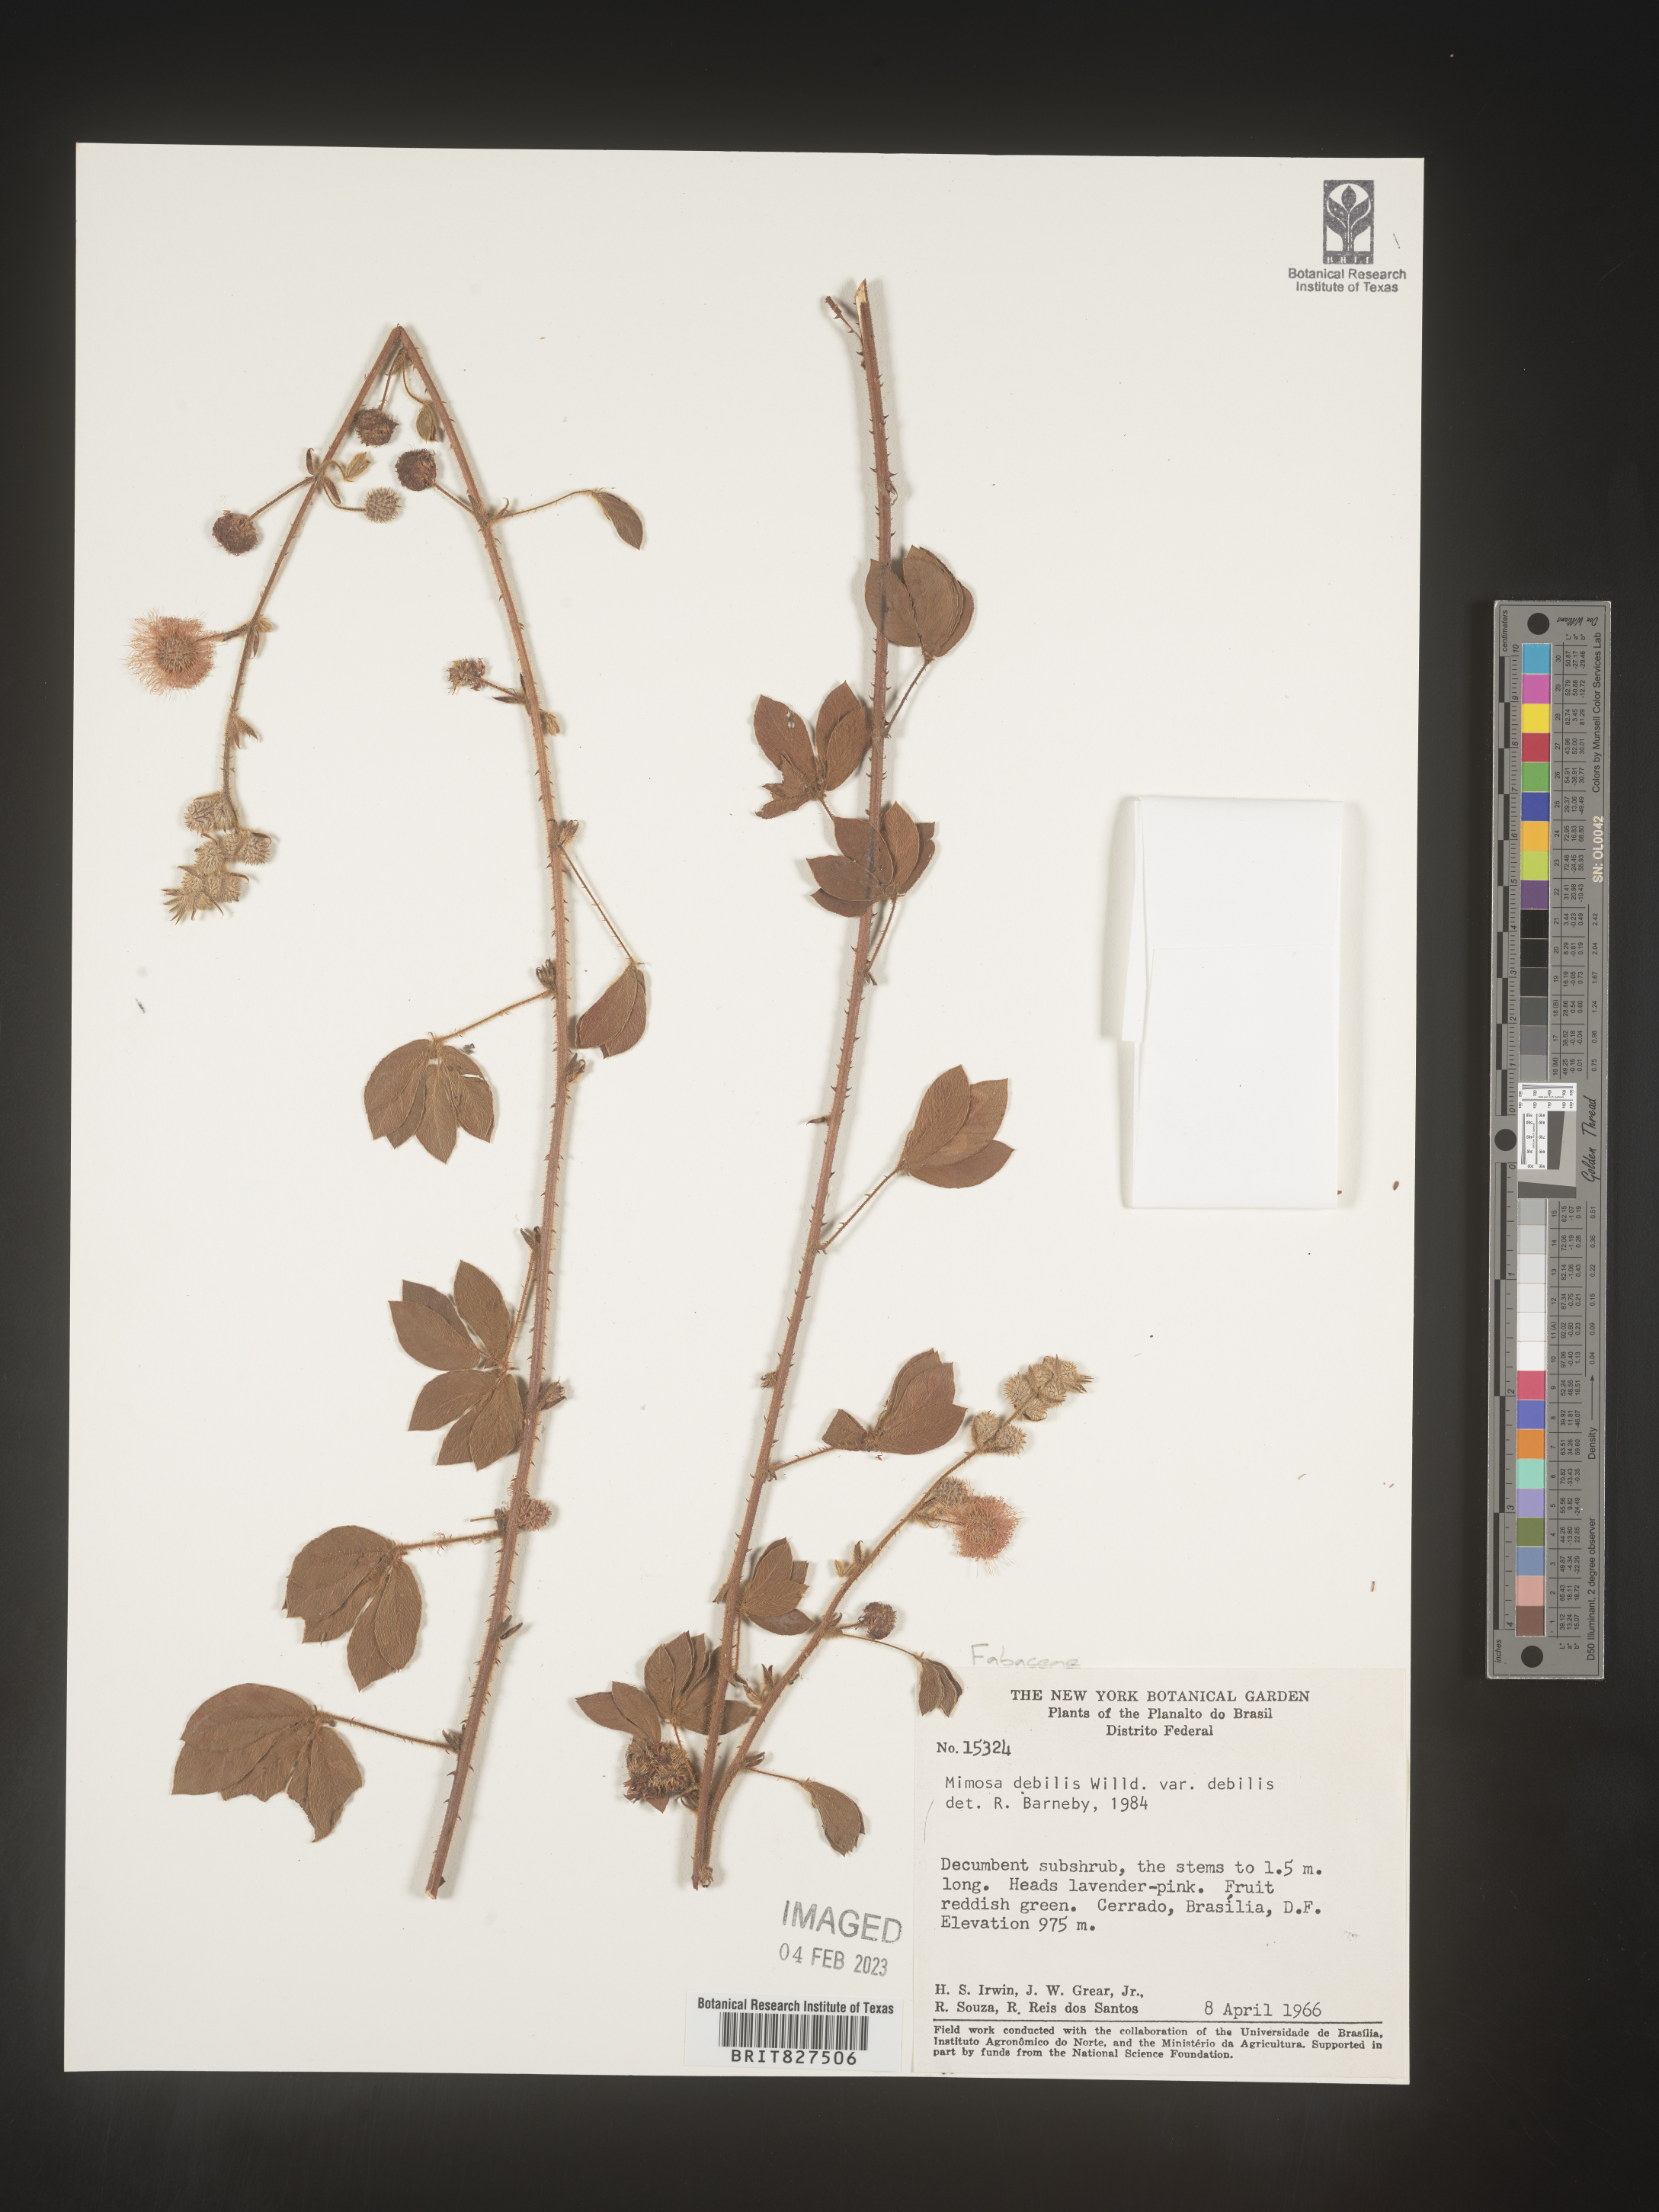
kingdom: Plantae
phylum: Tracheophyta
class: Magnoliopsida
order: Fabales
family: Fabaceae
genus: Mimosa
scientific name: Mimosa
